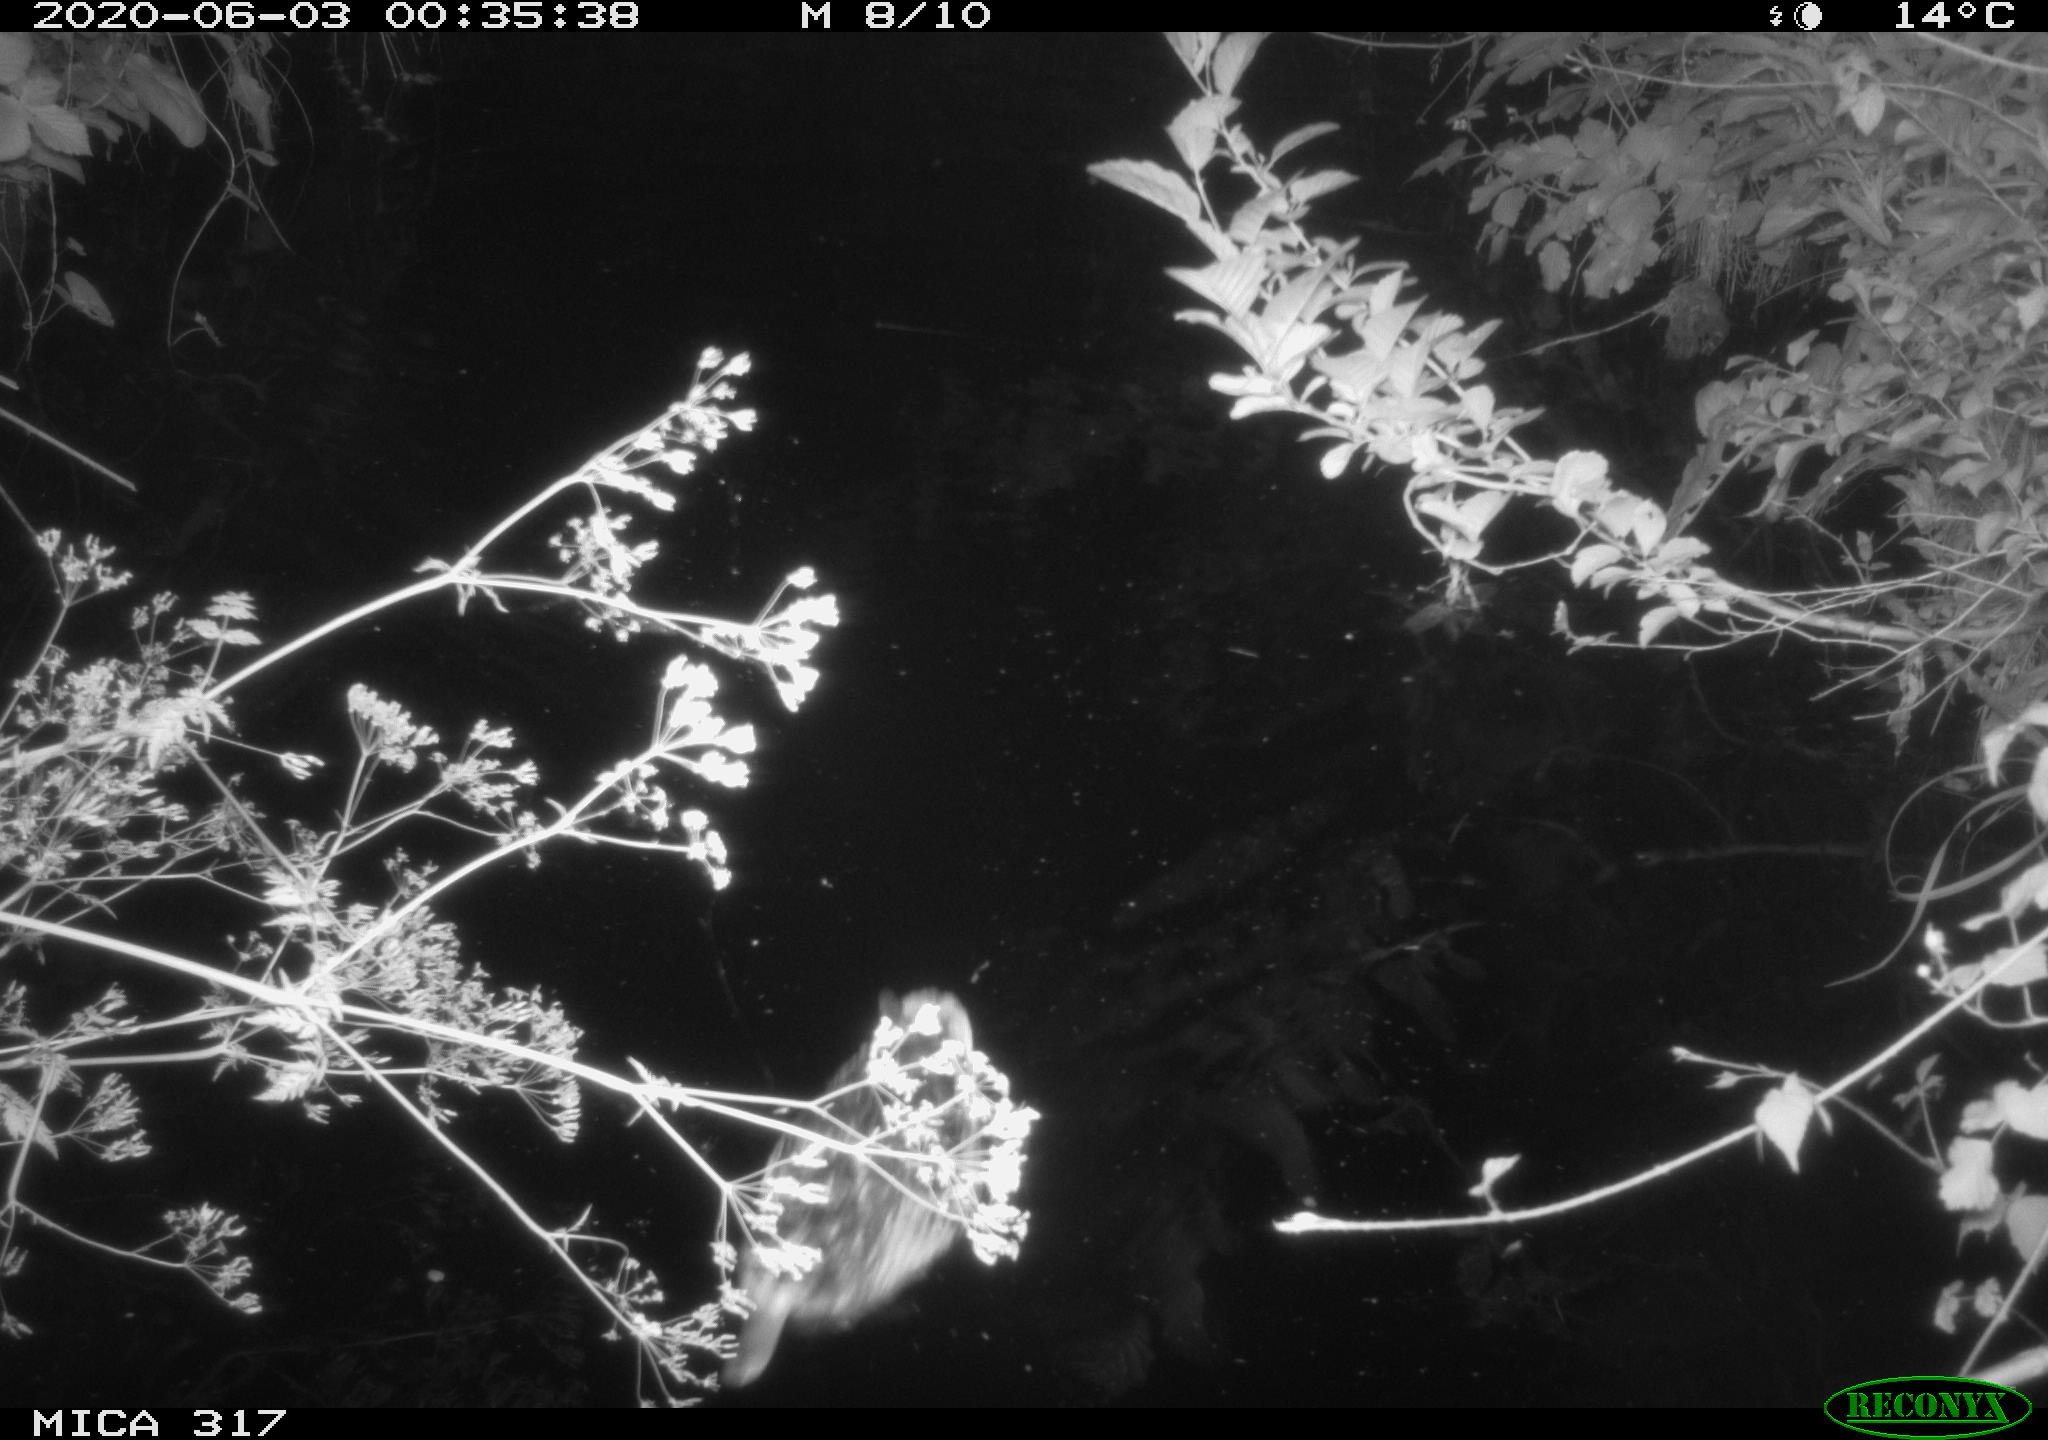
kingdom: Animalia
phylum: Chordata
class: Aves
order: Anseriformes
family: Anatidae
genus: Anas
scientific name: Anas platyrhynchos
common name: Mallard
